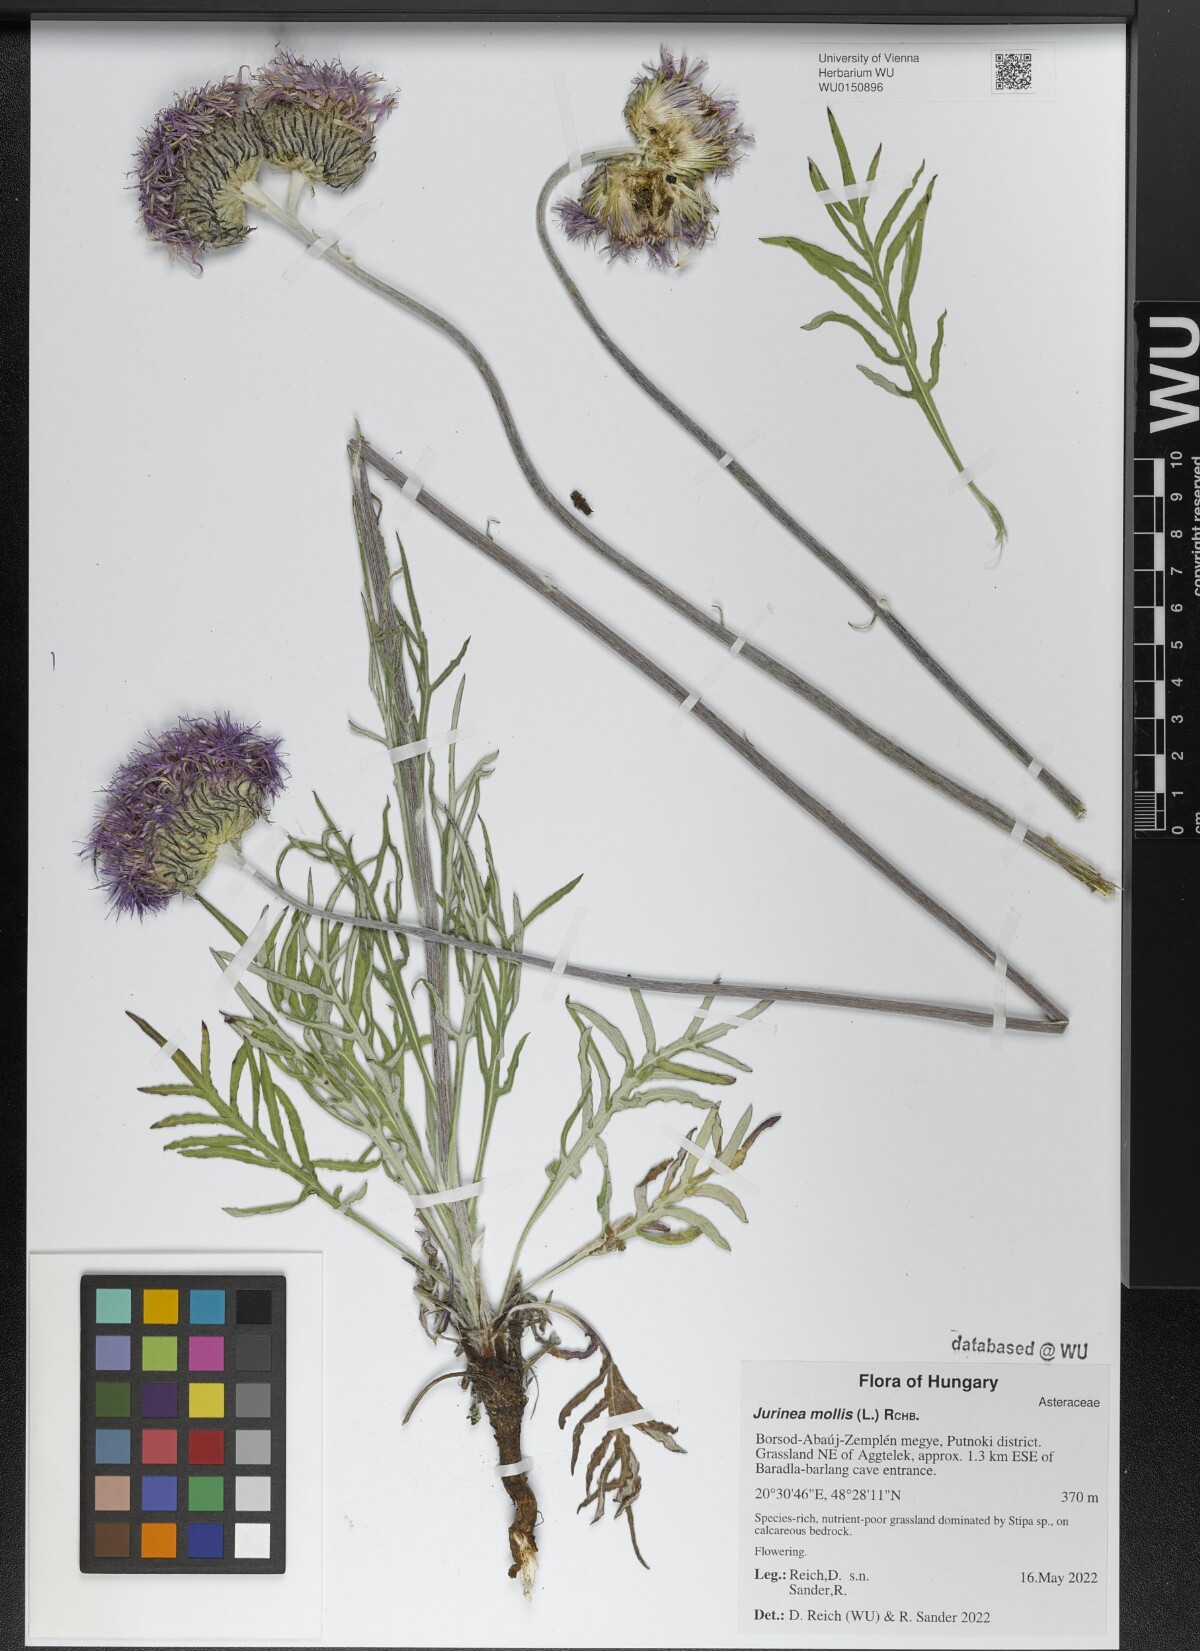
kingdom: Plantae
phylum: Tracheophyta
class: Magnoliopsida
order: Asterales
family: Asteraceae
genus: Jurinea
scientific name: Jurinea mollis
